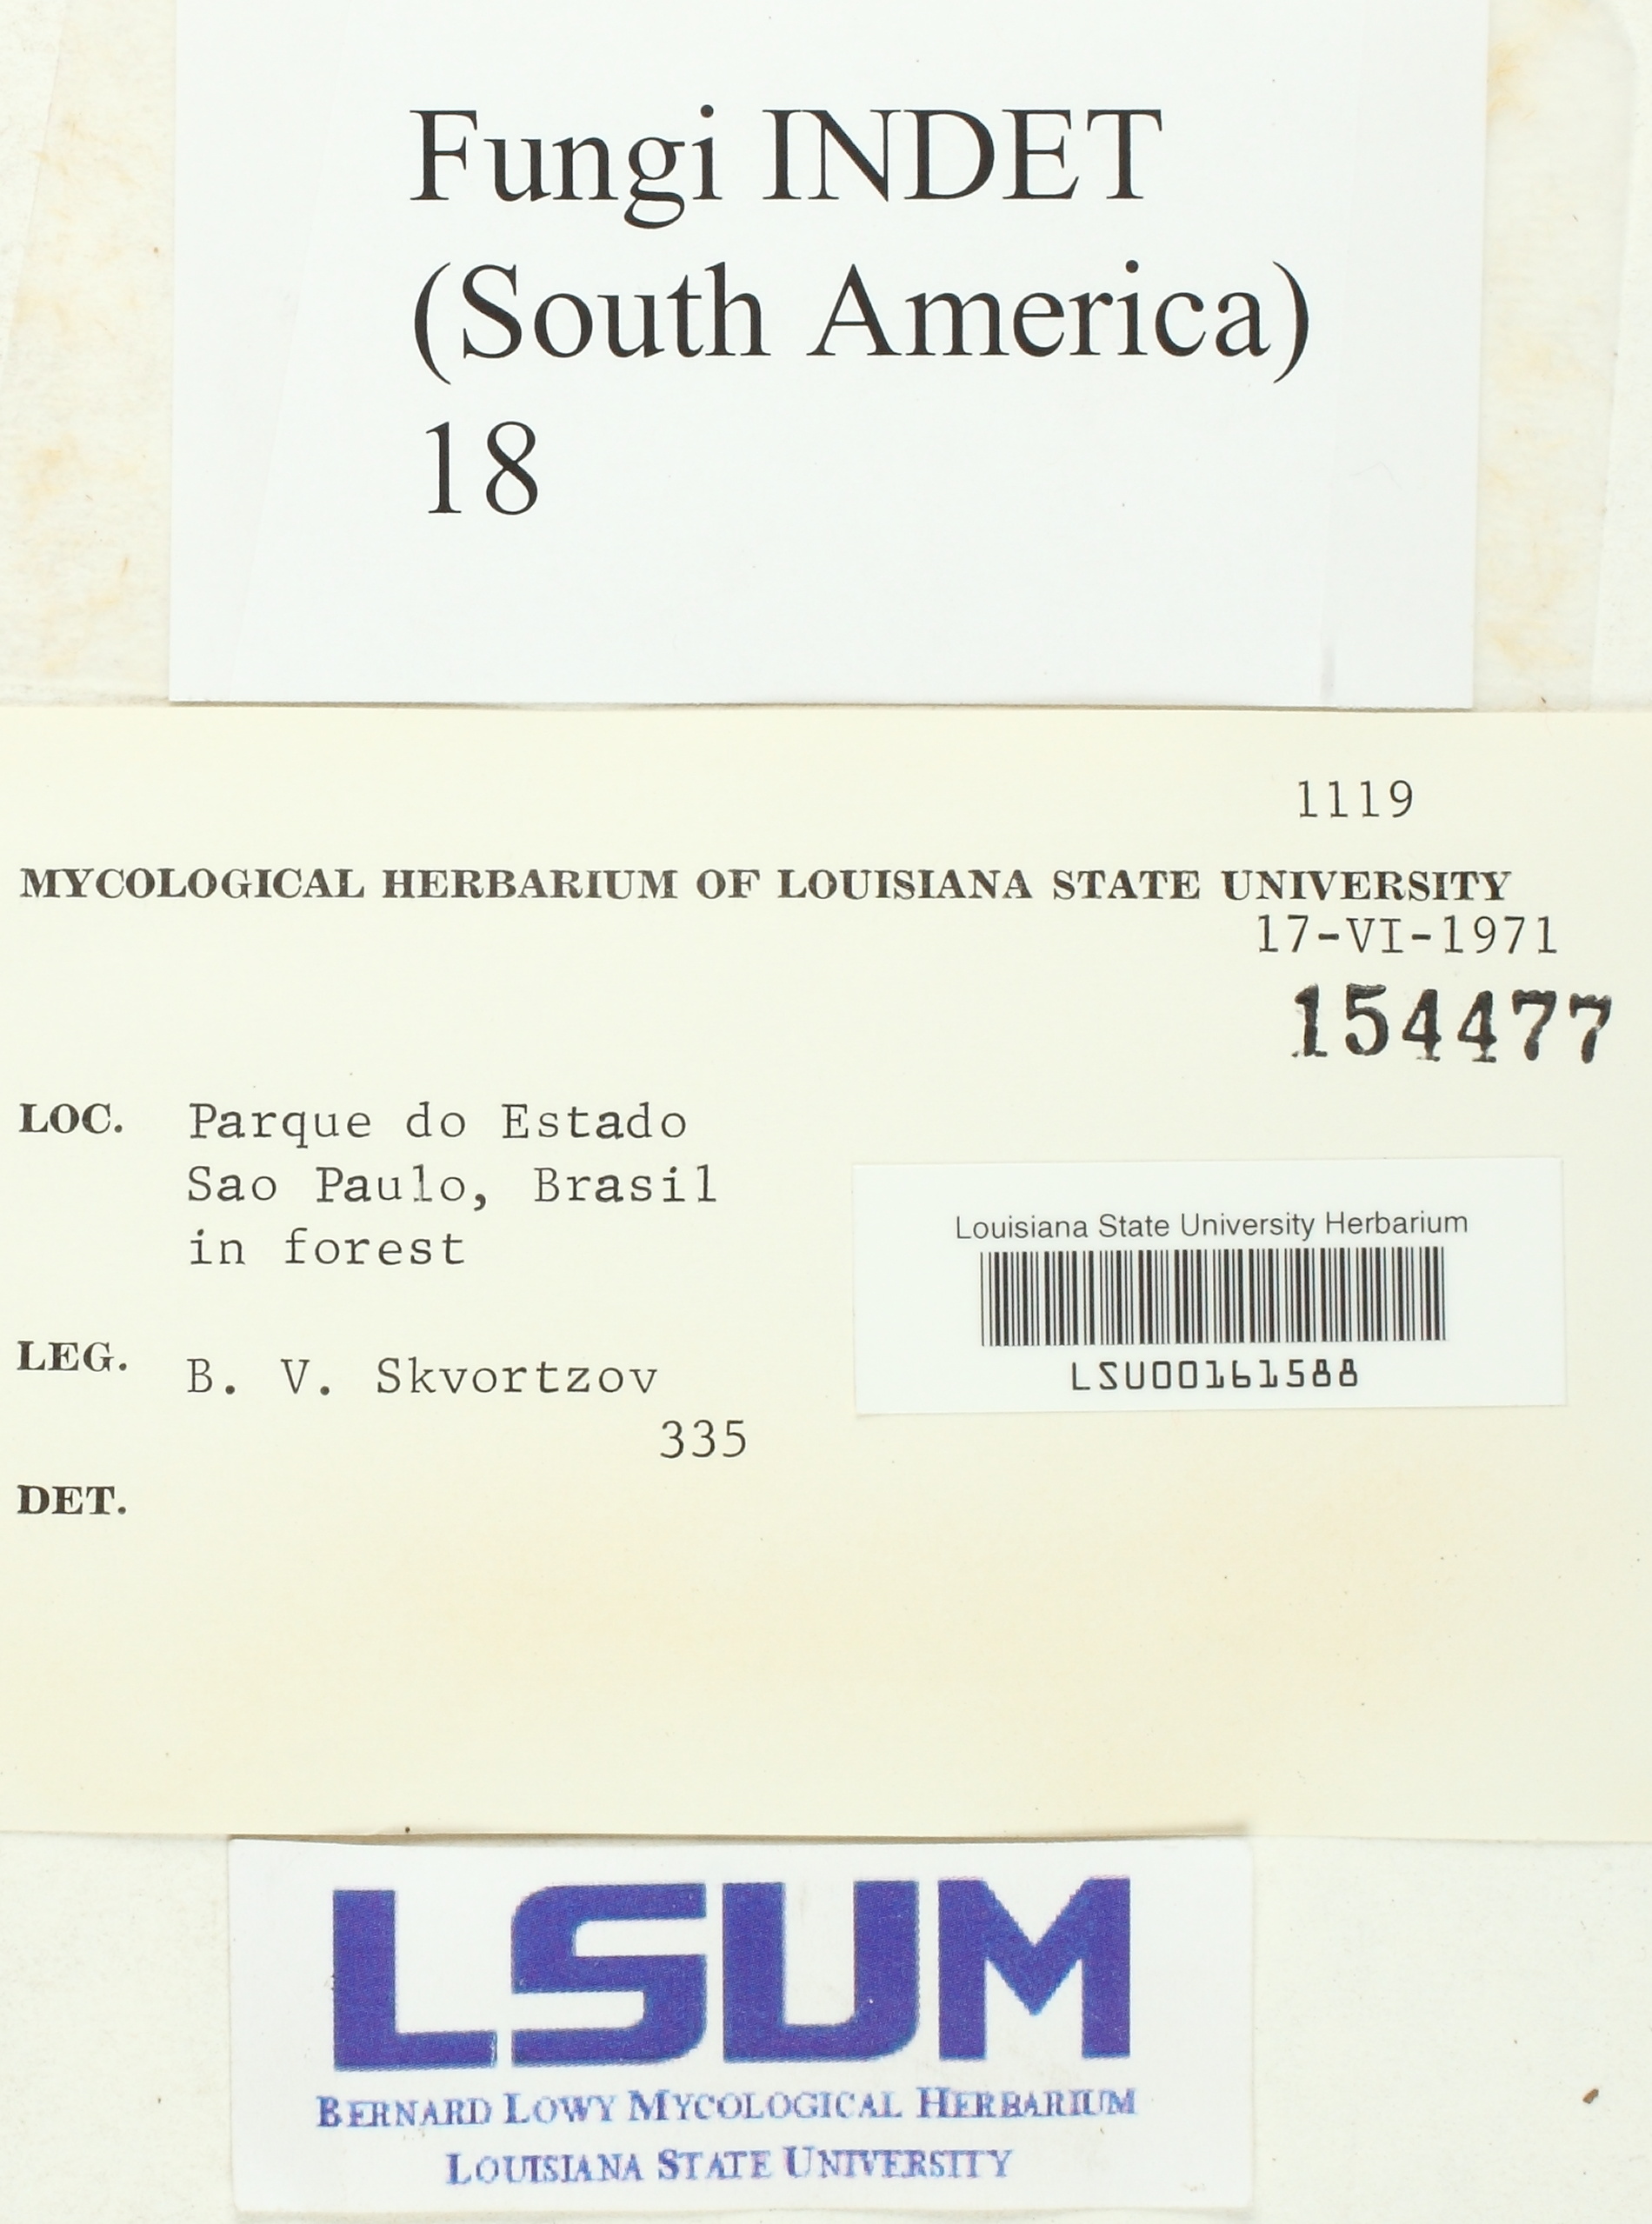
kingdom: Fungi
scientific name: Fungi
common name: Fungi
